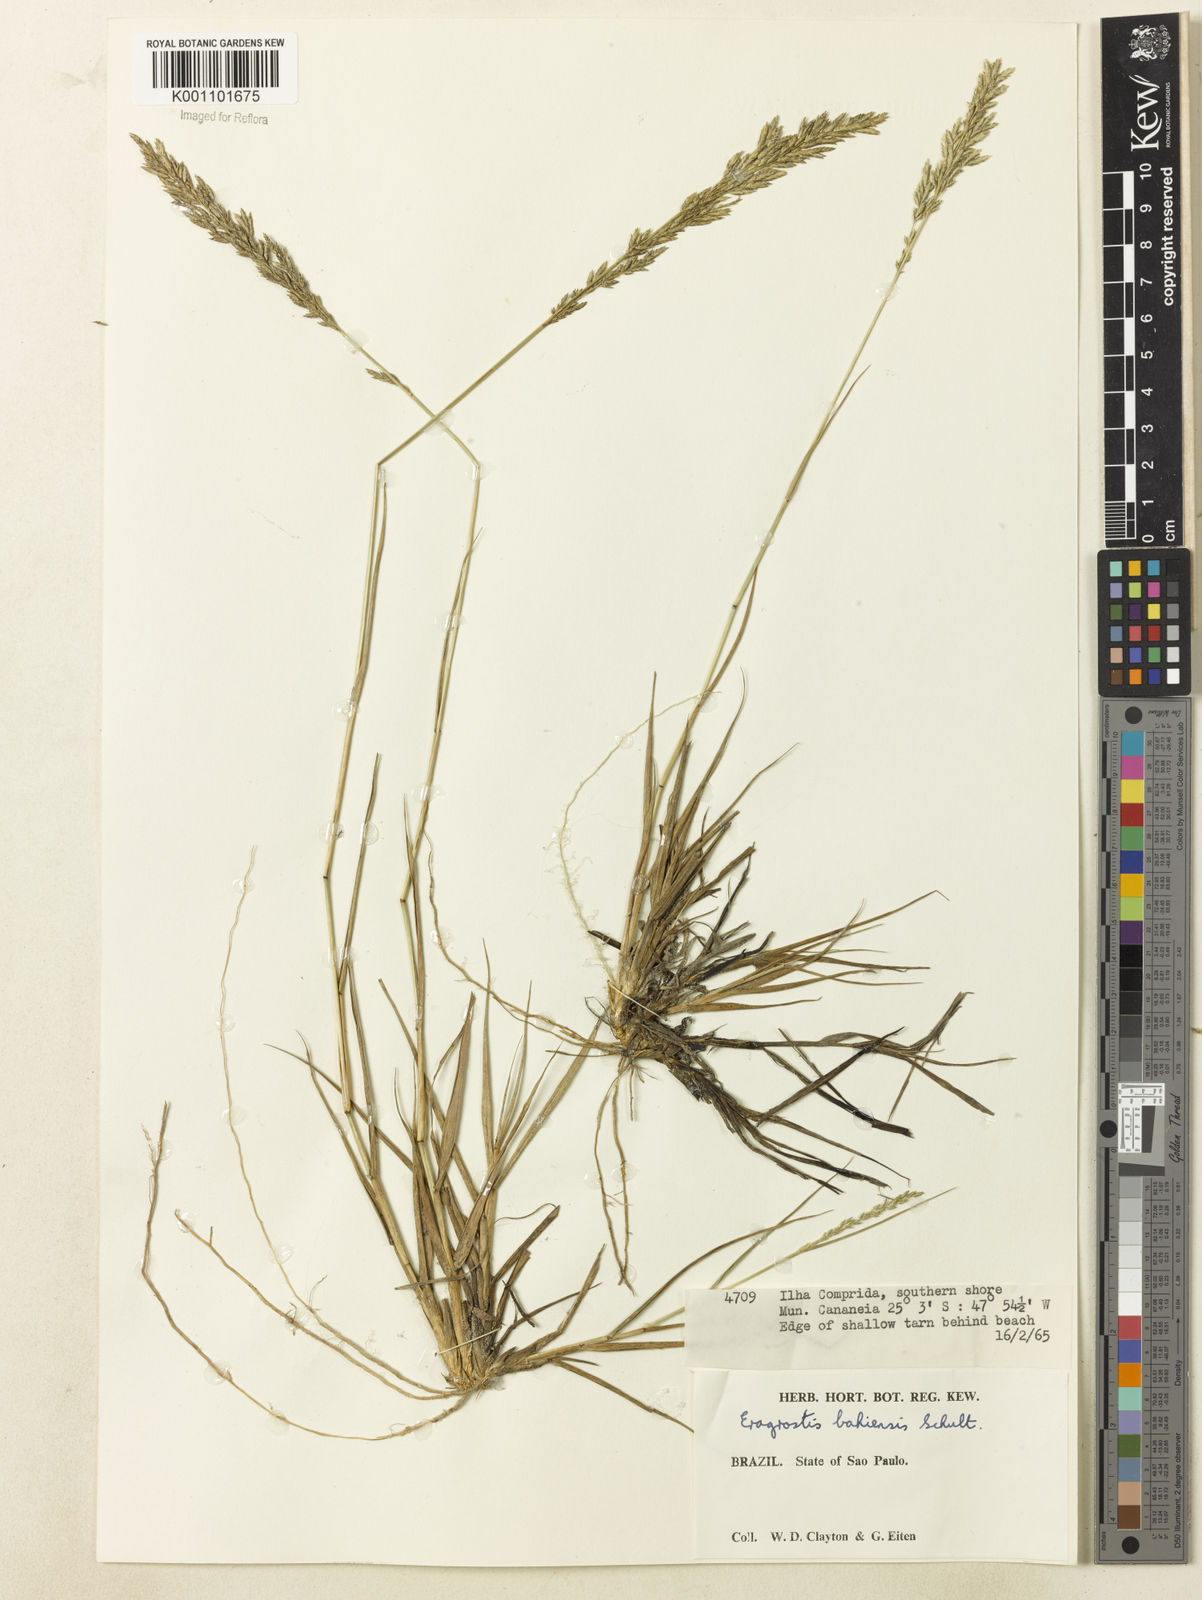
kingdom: Plantae
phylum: Tracheophyta
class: Liliopsida
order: Poales
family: Poaceae
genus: Eragrostis
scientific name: Eragrostis cataclasta
